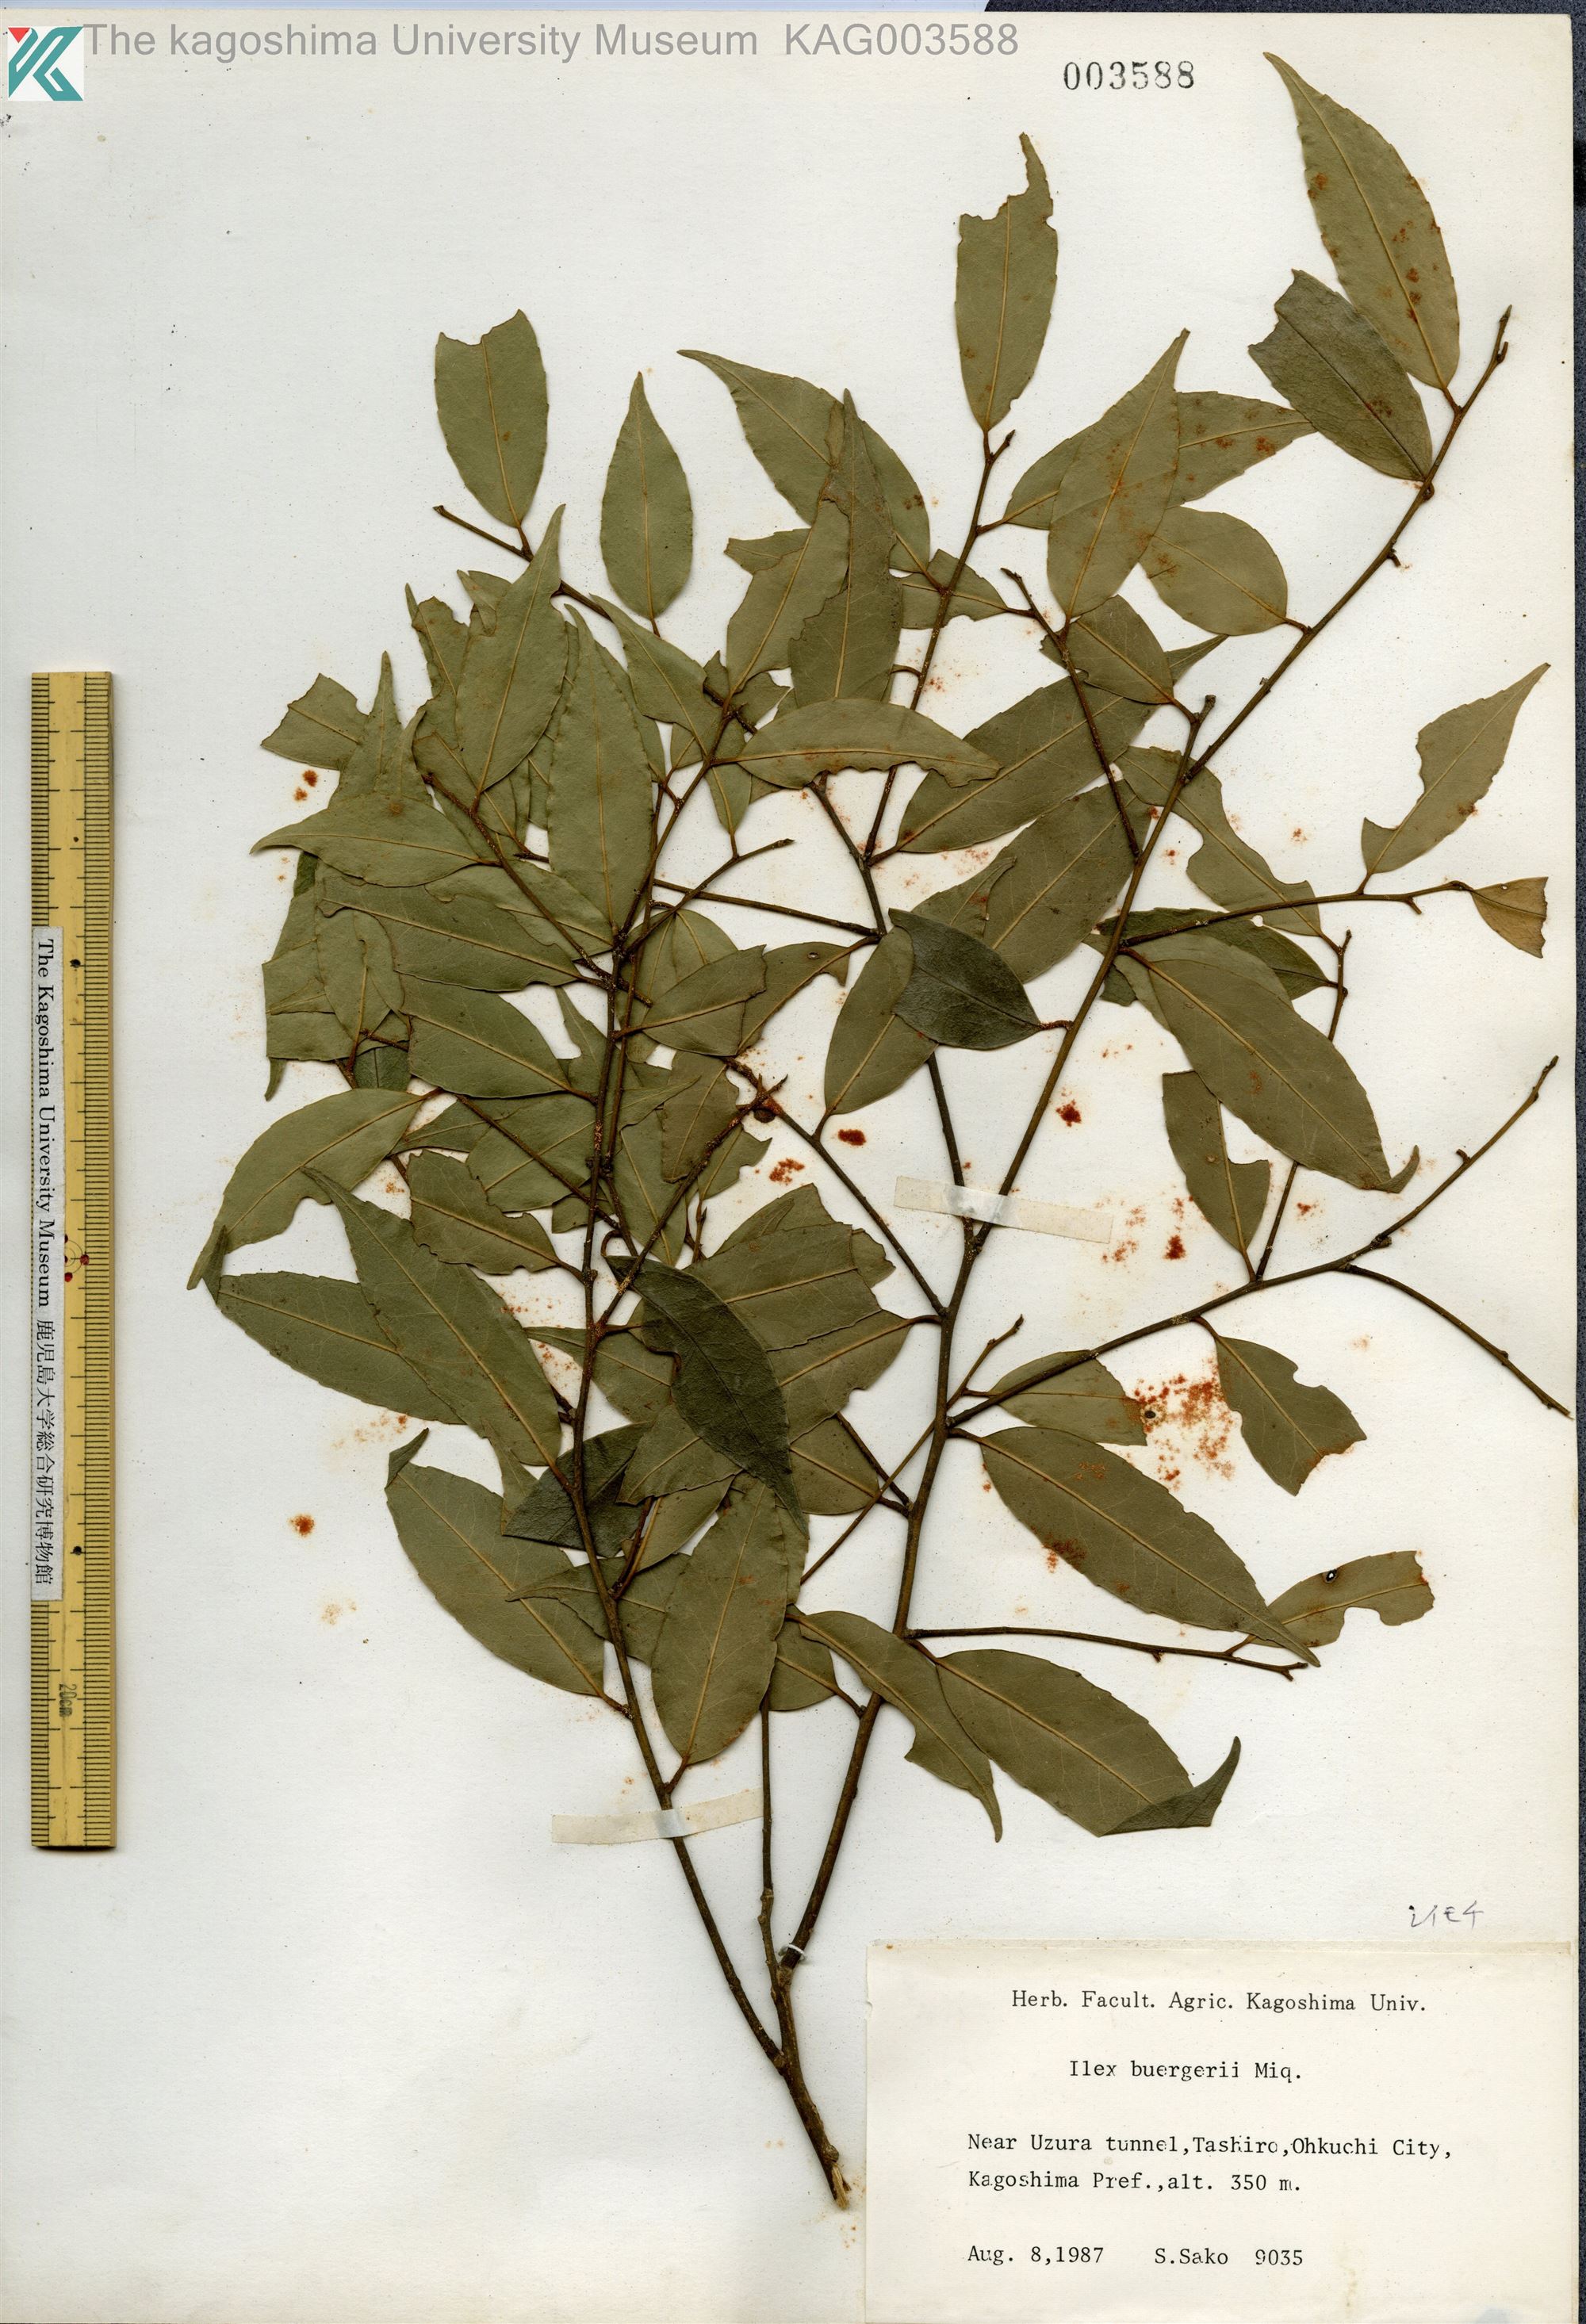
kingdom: Plantae
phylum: Tracheophyta
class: Magnoliopsida
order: Aquifoliales
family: Aquifoliaceae
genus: Ilex
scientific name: Ilex buergeri
